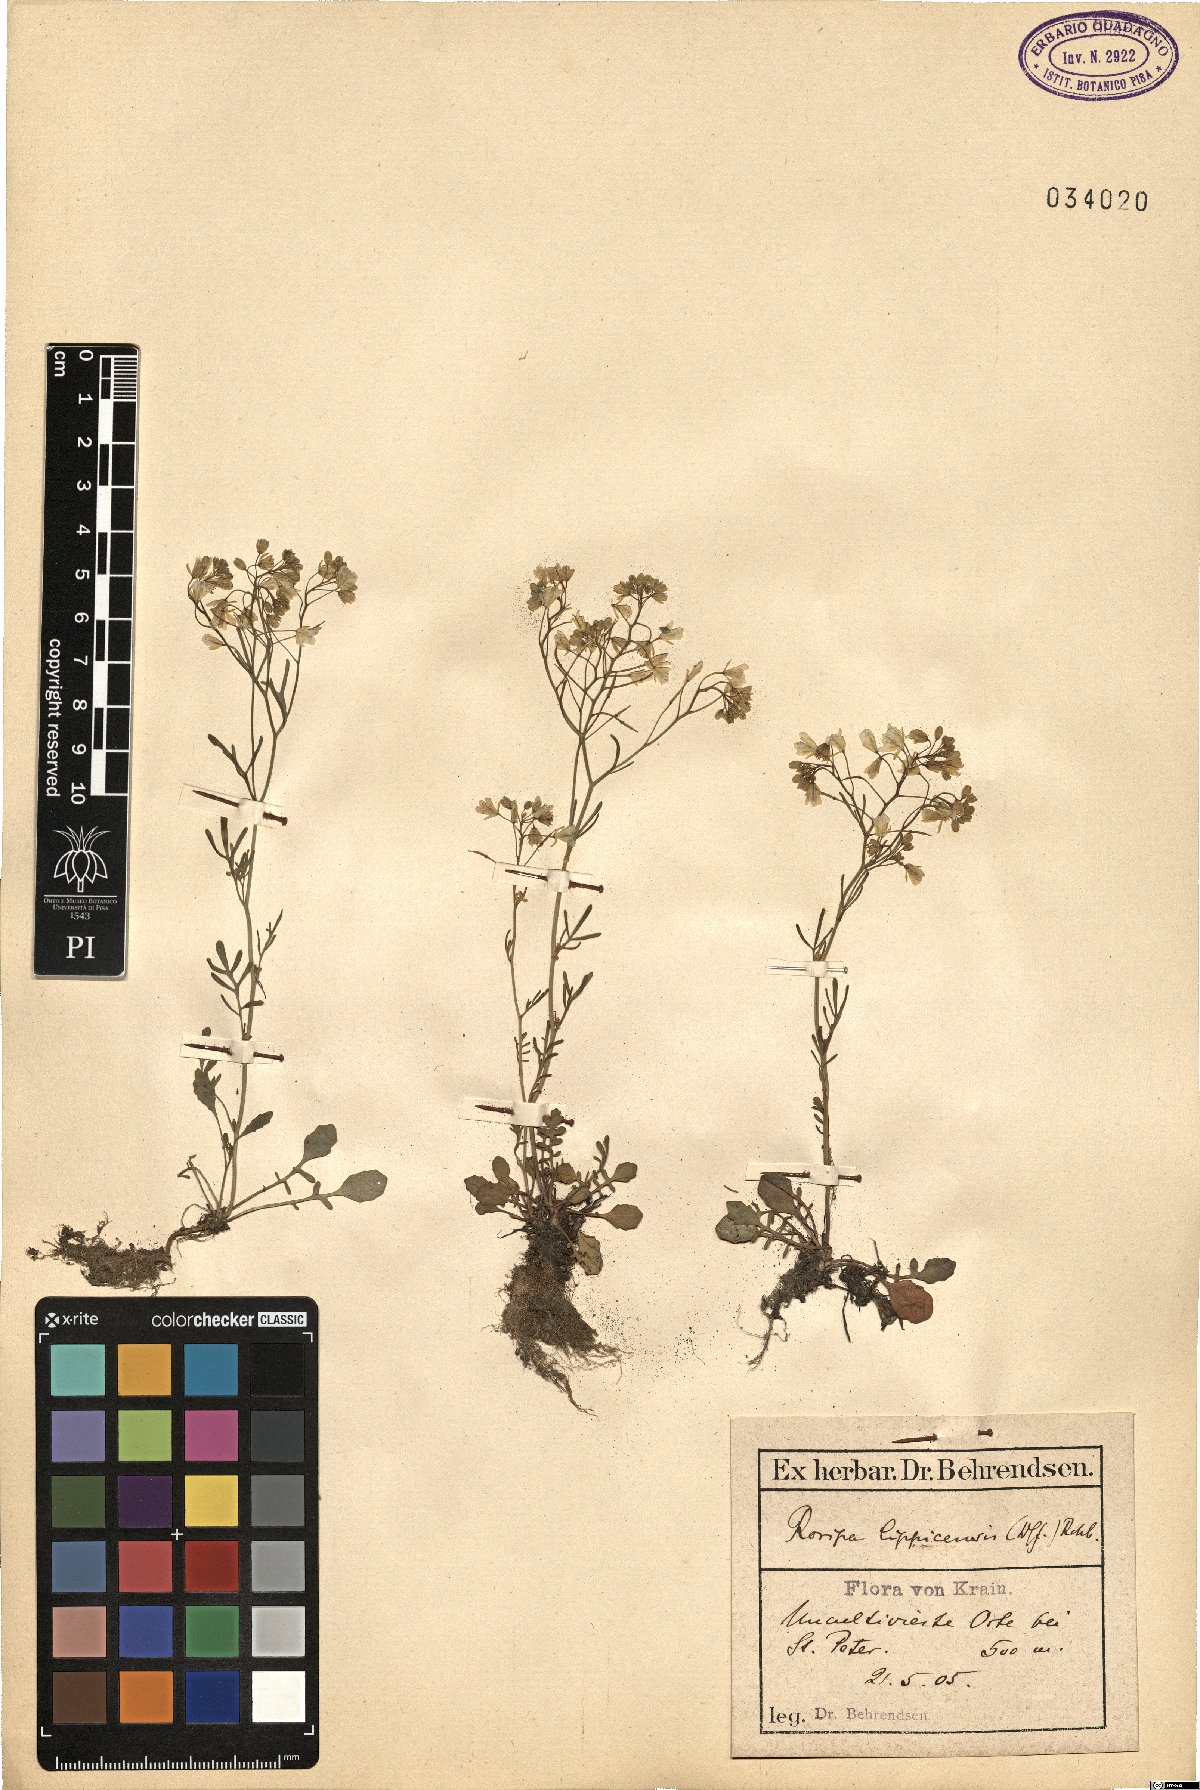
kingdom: Plantae
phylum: Tracheophyta
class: Magnoliopsida
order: Brassicales
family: Brassicaceae
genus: Rorippa
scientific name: Rorippa lippizensis
